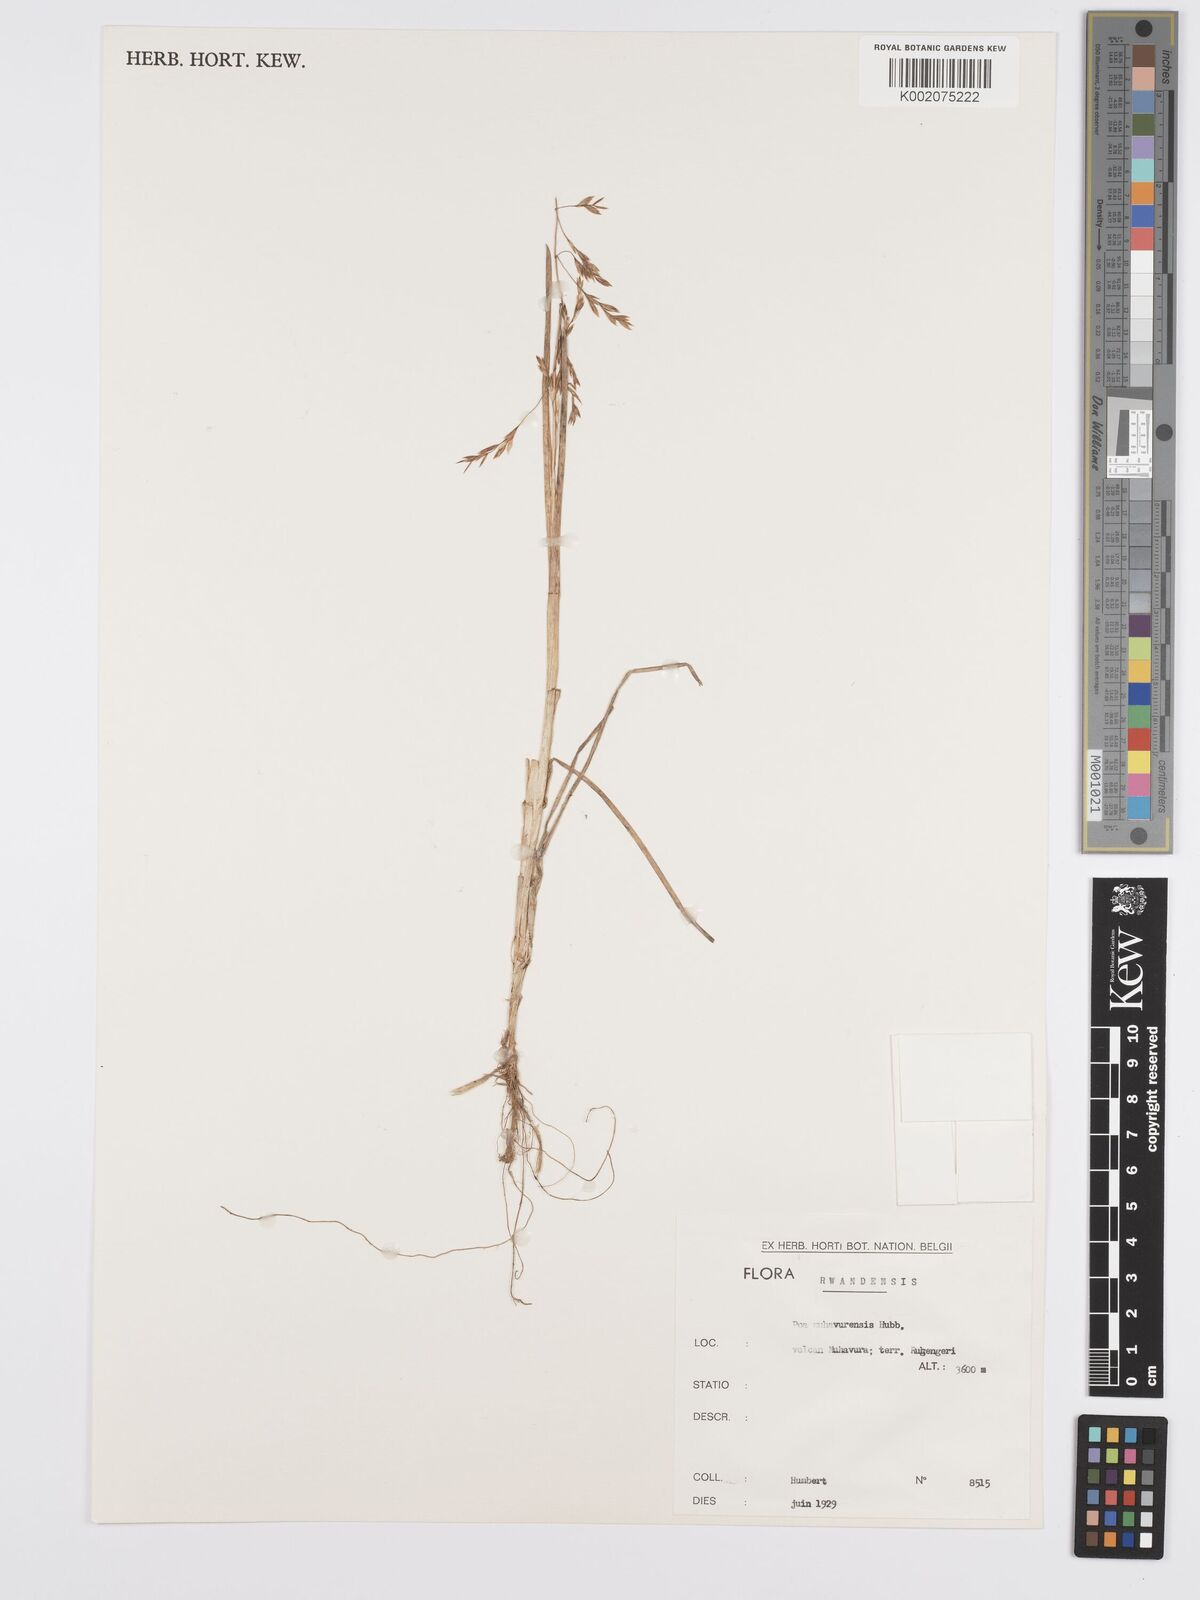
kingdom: Plantae
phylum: Tracheophyta
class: Liliopsida
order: Poales
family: Poaceae
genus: Poa
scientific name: Poa schimperiana
